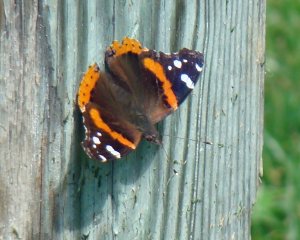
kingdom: Animalia
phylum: Arthropoda
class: Insecta
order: Lepidoptera
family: Nymphalidae
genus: Vanessa
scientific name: Vanessa atalanta
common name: Red Admiral
